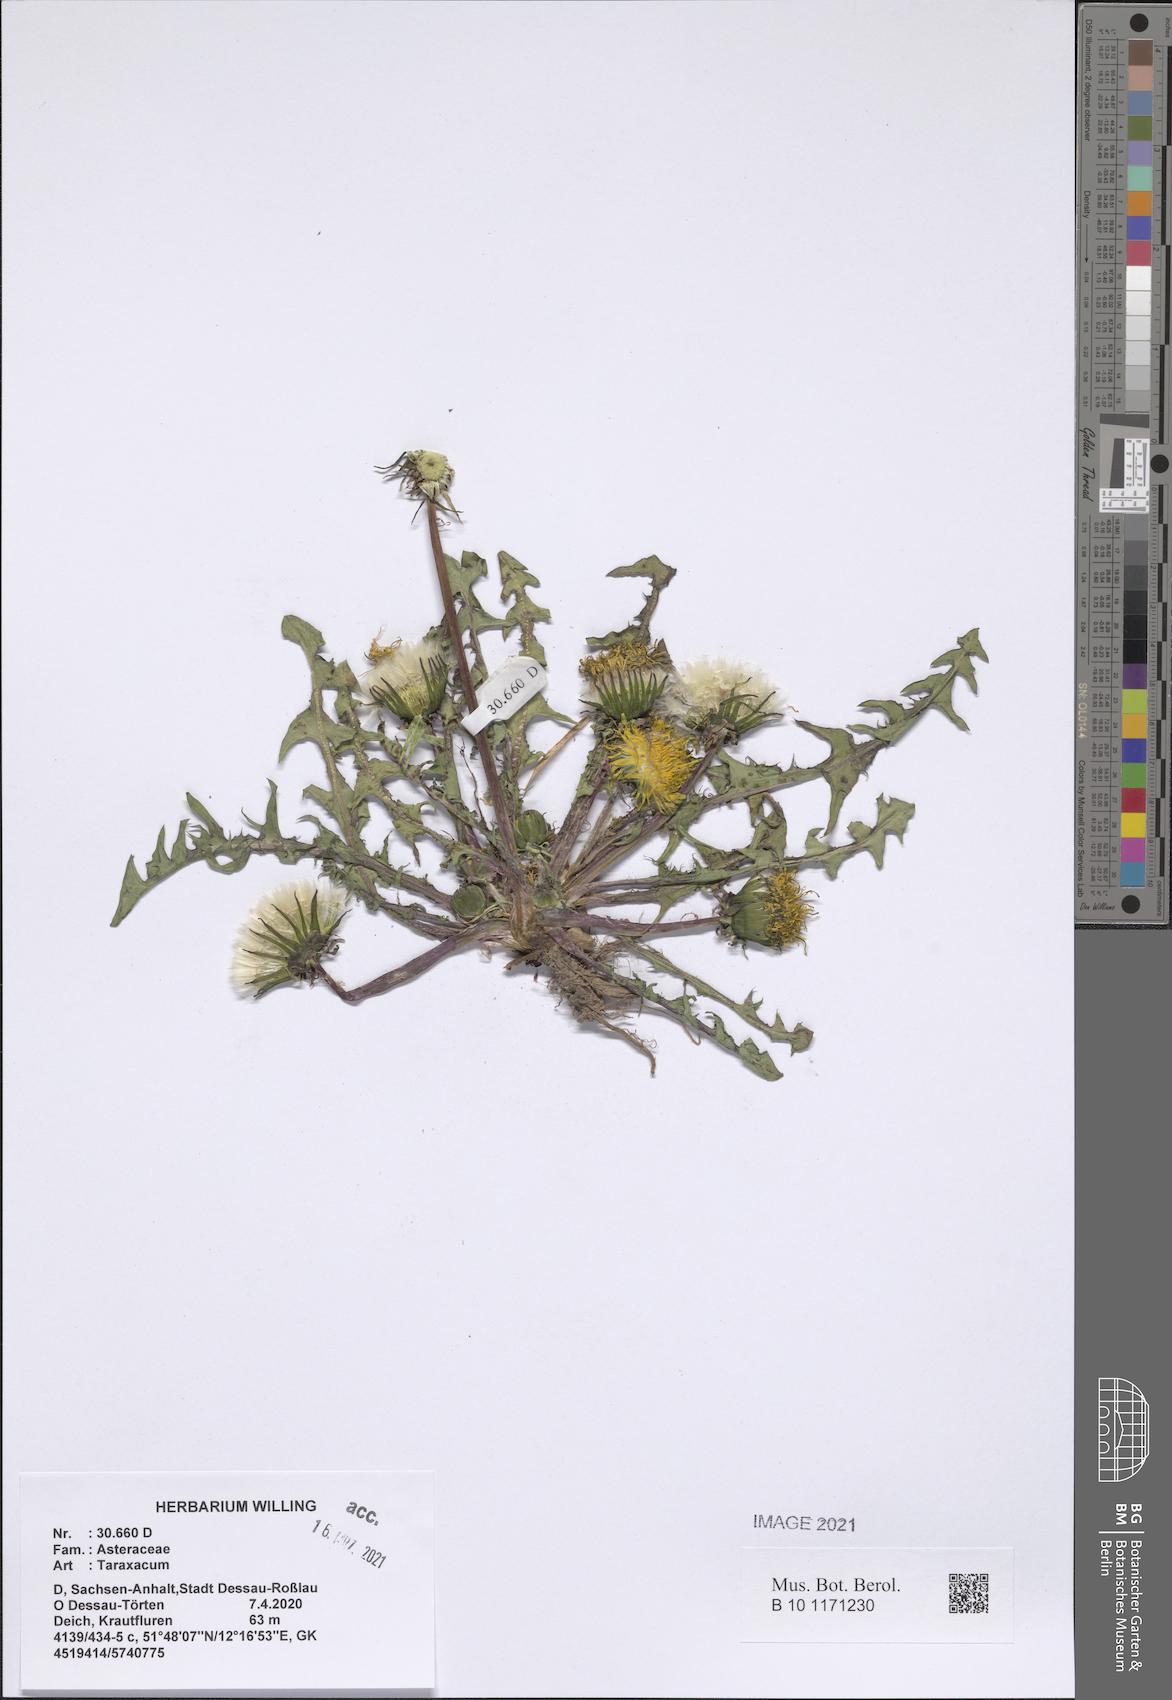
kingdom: Plantae
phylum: Tracheophyta
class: Magnoliopsida
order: Asterales
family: Asteraceae
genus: Taraxacum
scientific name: Taraxacum
